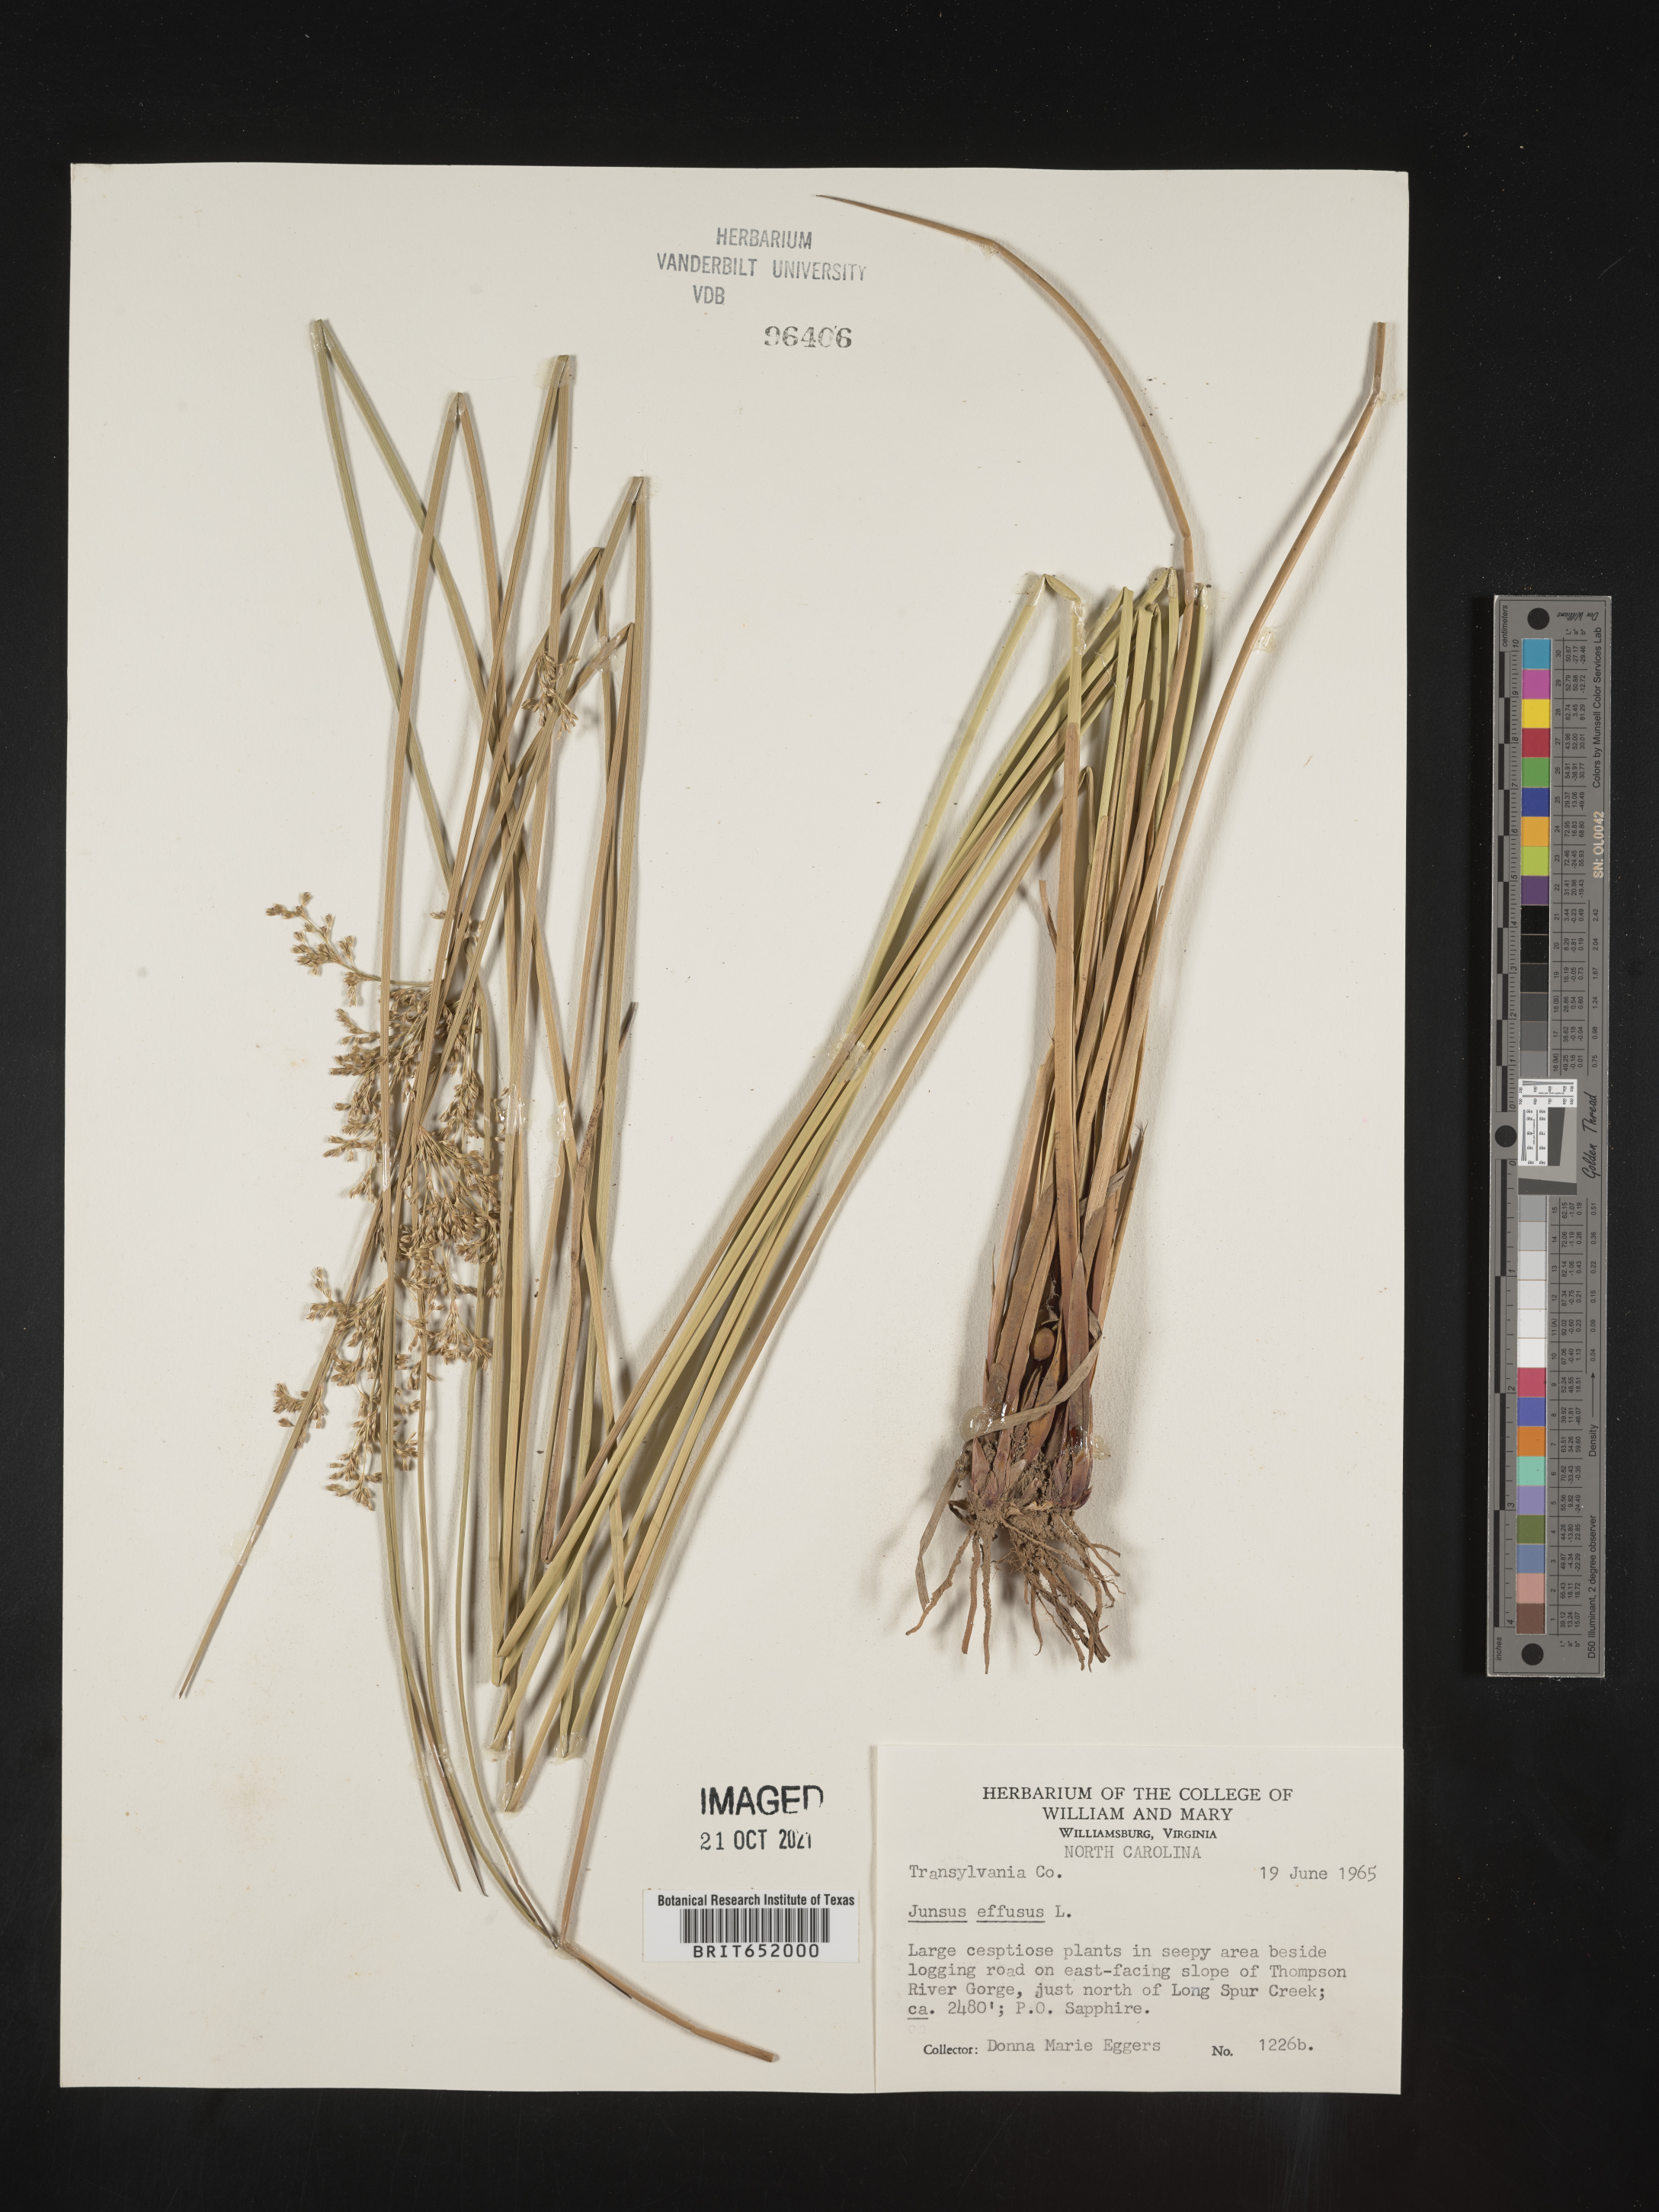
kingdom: Plantae
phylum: Tracheophyta
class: Liliopsida
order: Poales
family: Juncaceae
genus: Juncus
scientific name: Juncus effusus
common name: Soft rush
